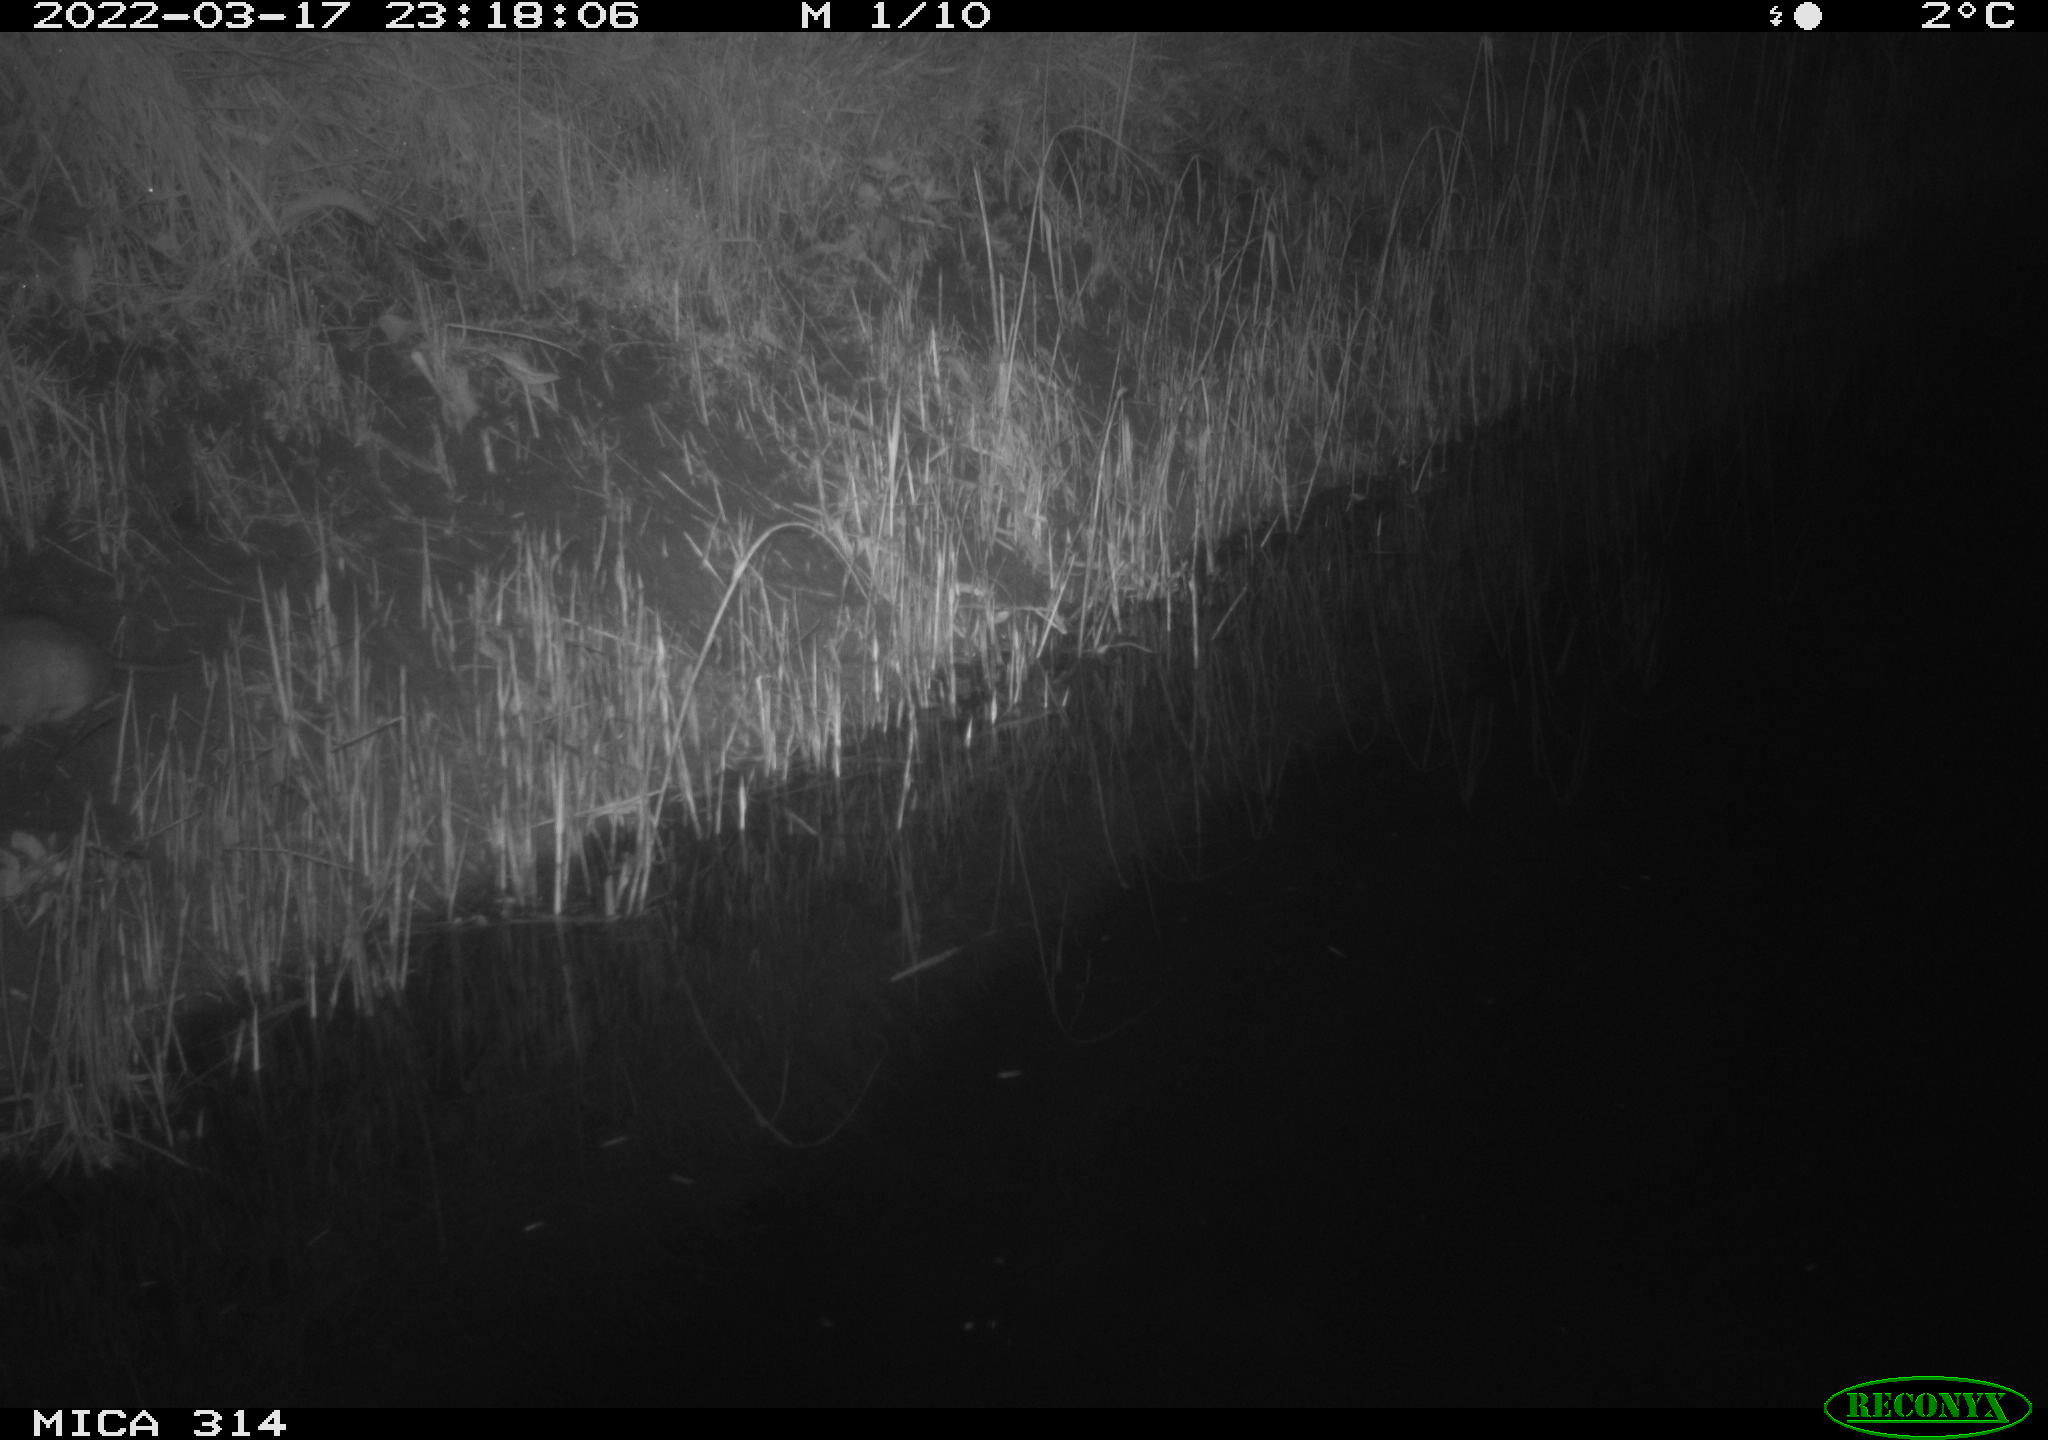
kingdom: Animalia
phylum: Chordata
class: Mammalia
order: Rodentia
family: Muridae
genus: Rattus
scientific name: Rattus norvegicus
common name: Brown rat
